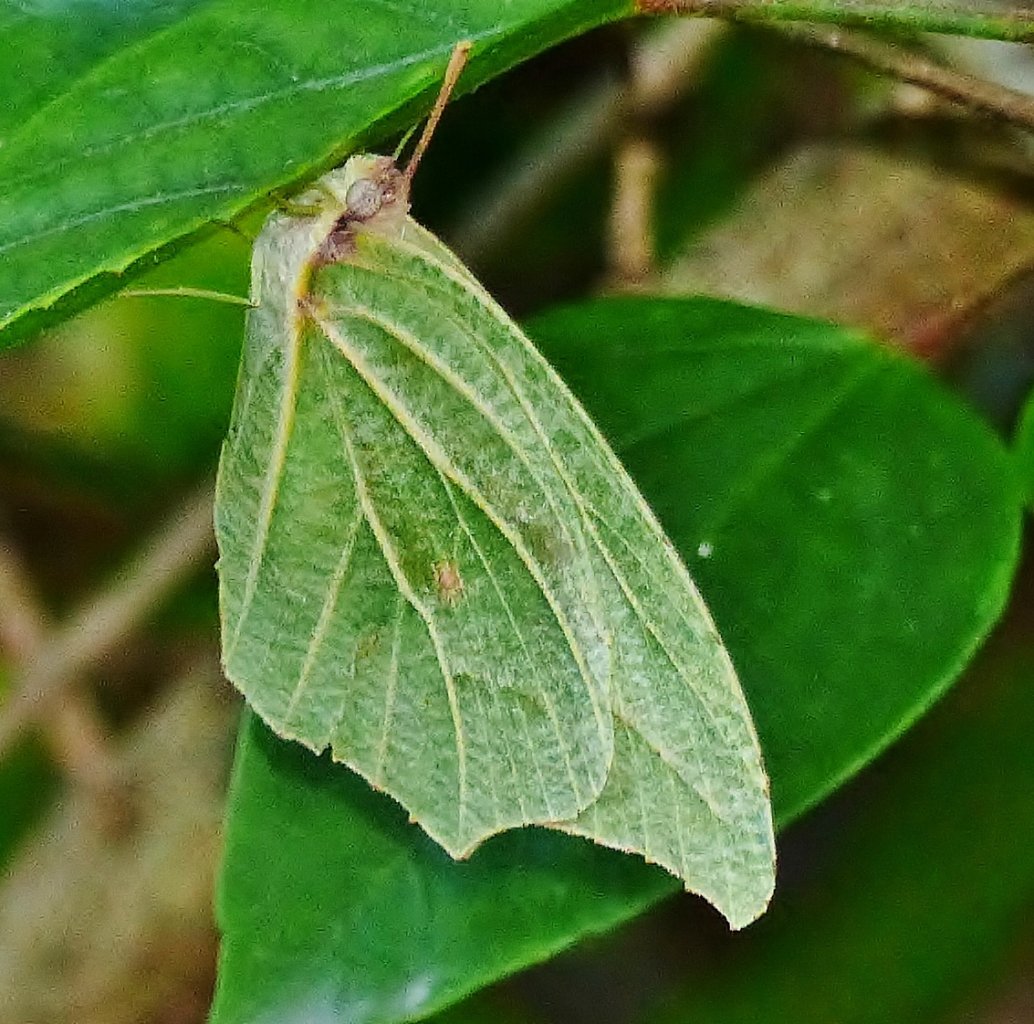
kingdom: Animalia
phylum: Arthropoda
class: Insecta
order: Lepidoptera
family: Pieridae
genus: Anteos
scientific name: Anteos clorinde
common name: White Angled-Sulphur
